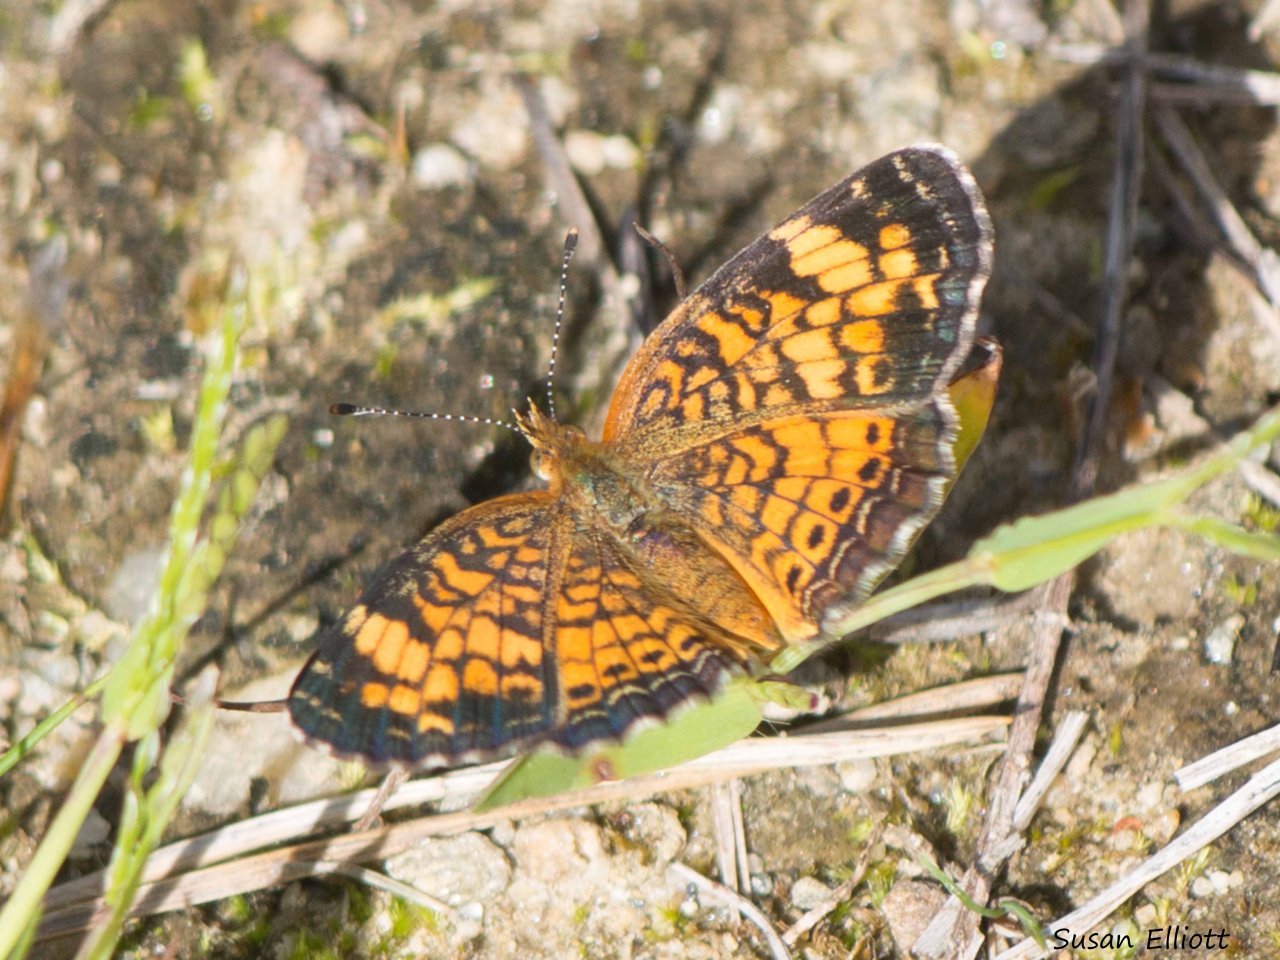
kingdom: Animalia
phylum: Arthropoda
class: Insecta
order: Lepidoptera
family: Nymphalidae
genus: Phyciodes
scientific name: Phyciodes
